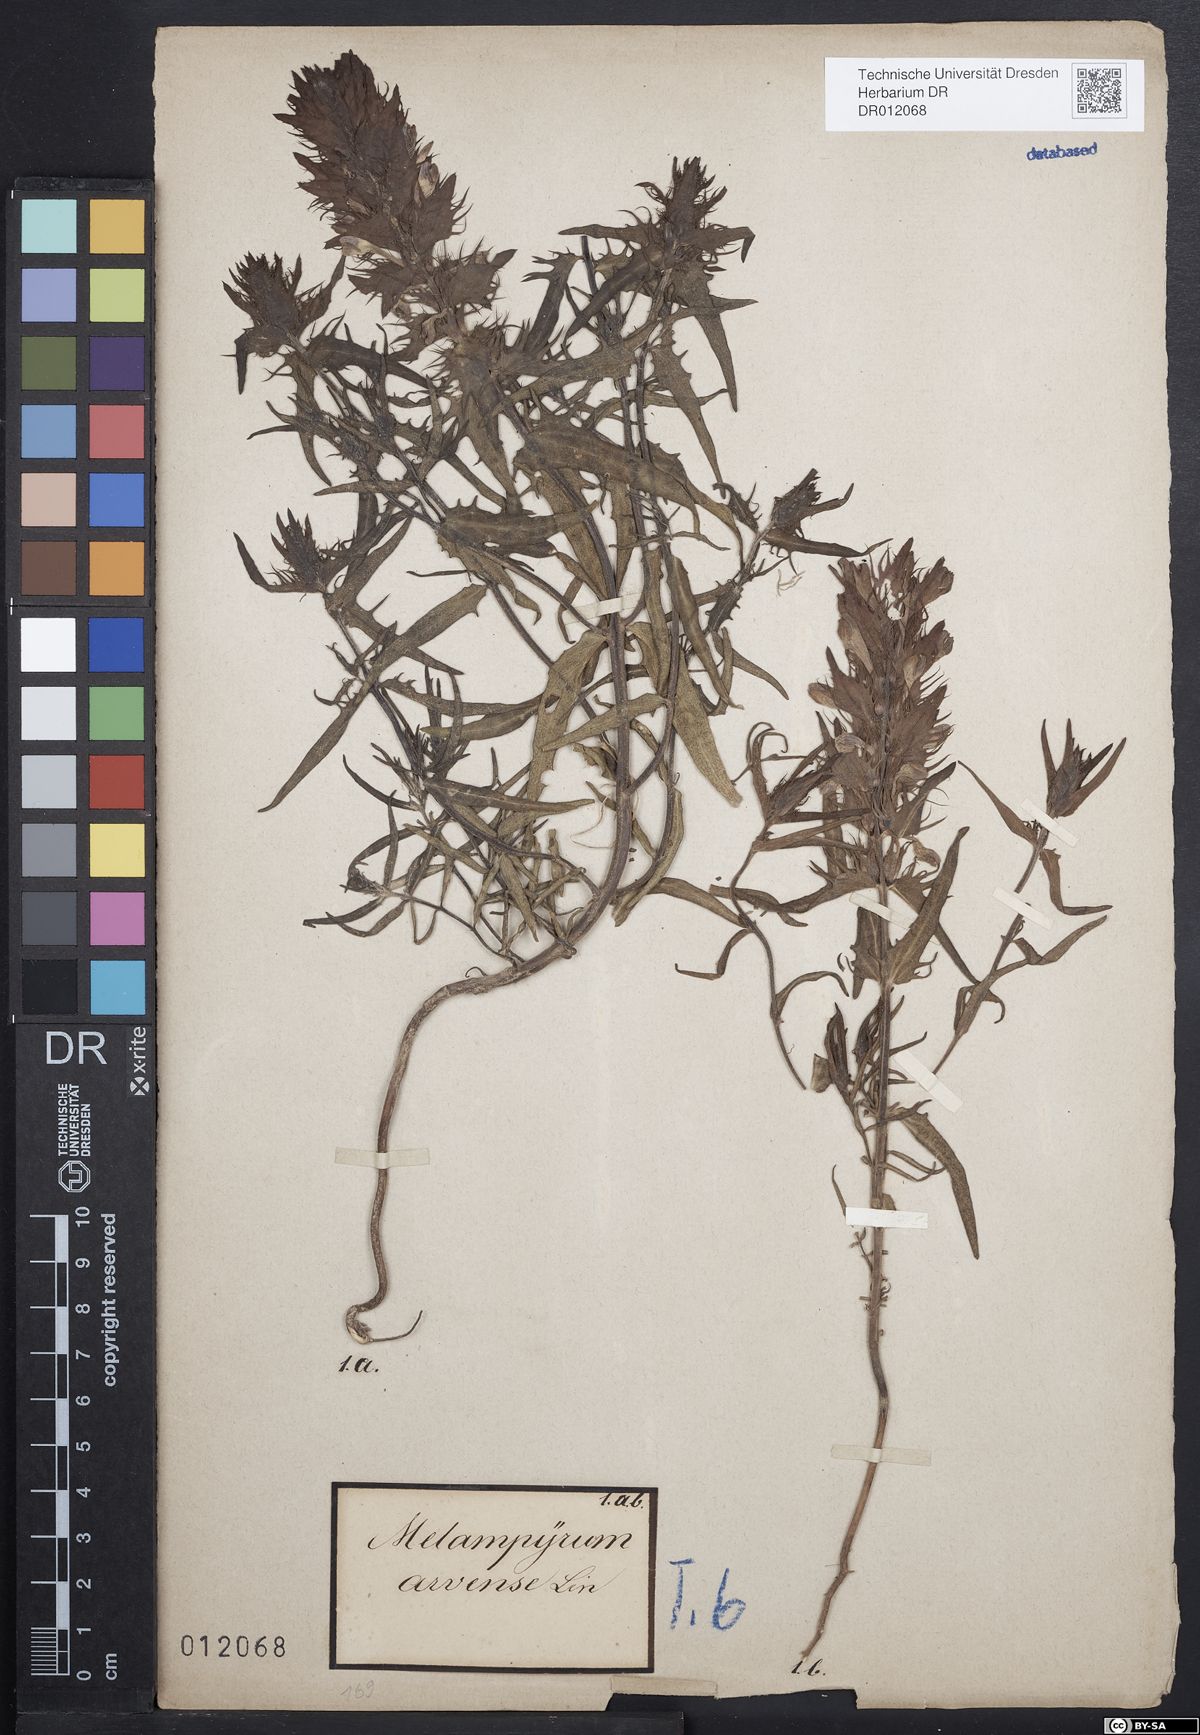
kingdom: Plantae
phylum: Tracheophyta
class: Magnoliopsida
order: Lamiales
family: Orobanchaceae
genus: Melampyrum
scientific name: Melampyrum arvense
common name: Field cow-wheat
